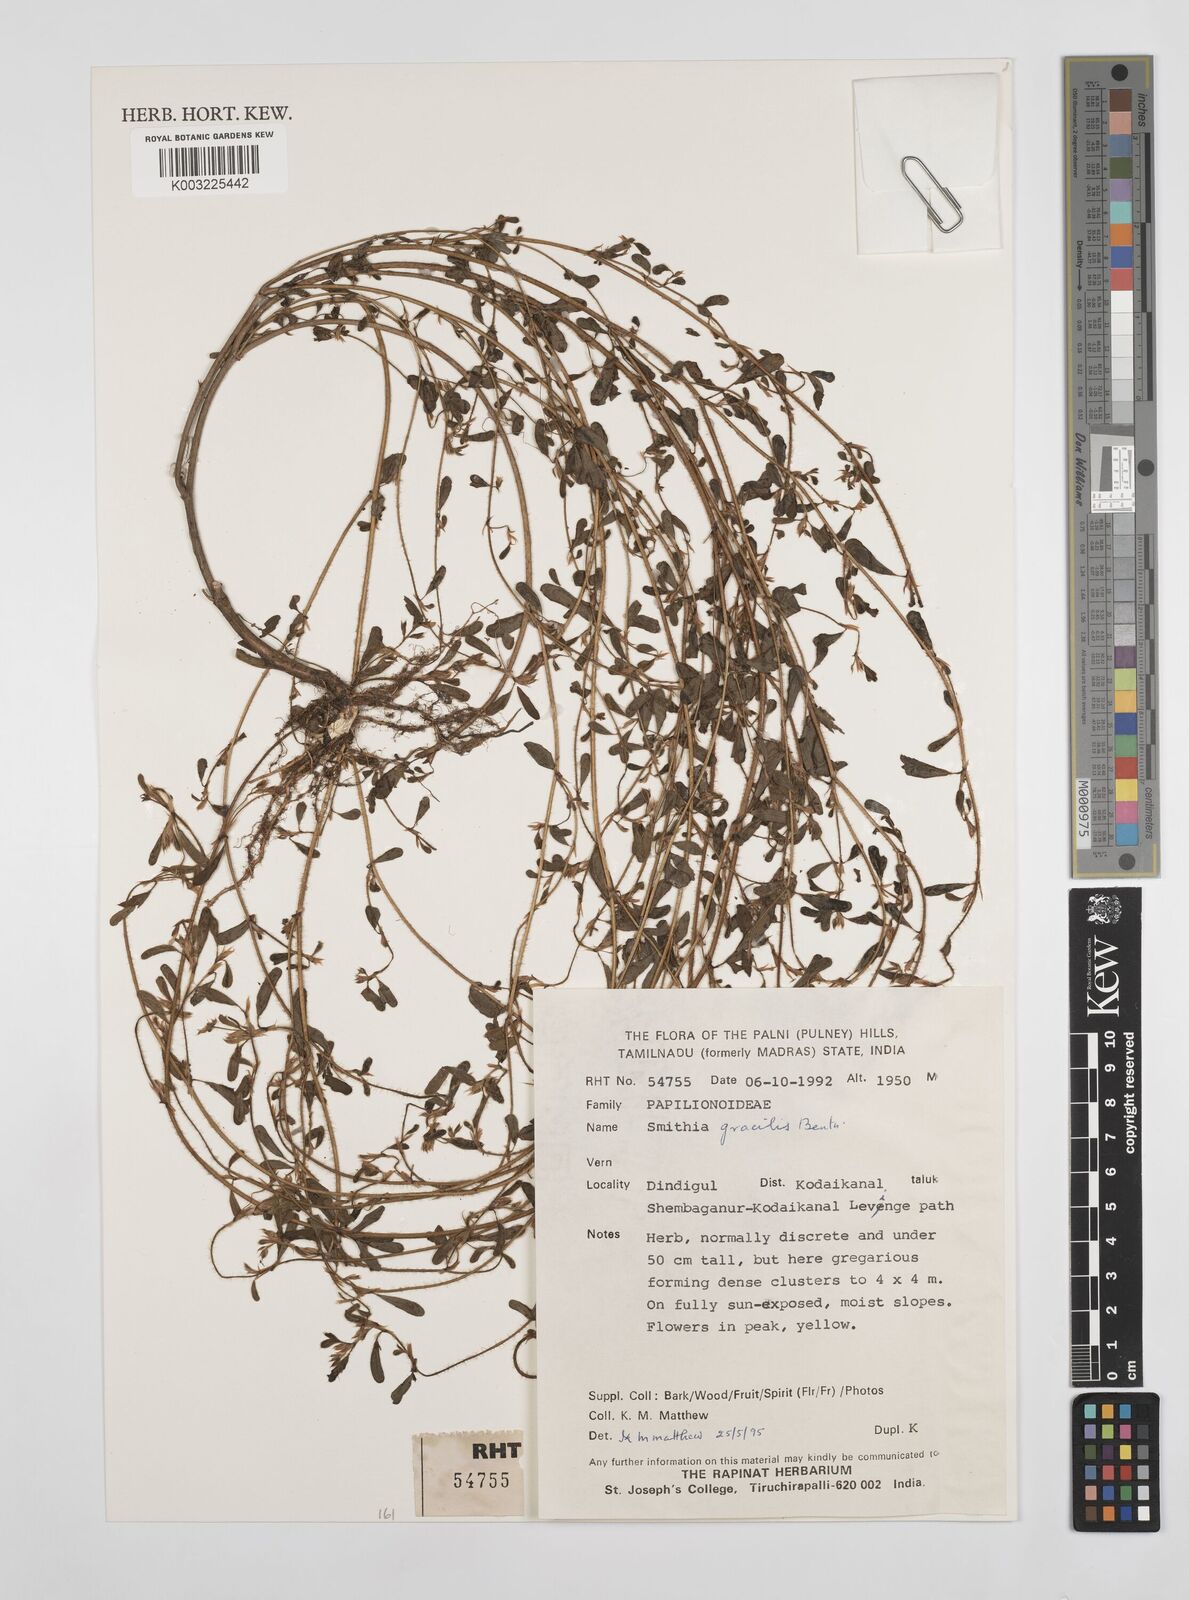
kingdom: Plantae
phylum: Tracheophyta
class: Magnoliopsida
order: Fabales
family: Fabaceae
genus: Smithia
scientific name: Smithia gracilis
